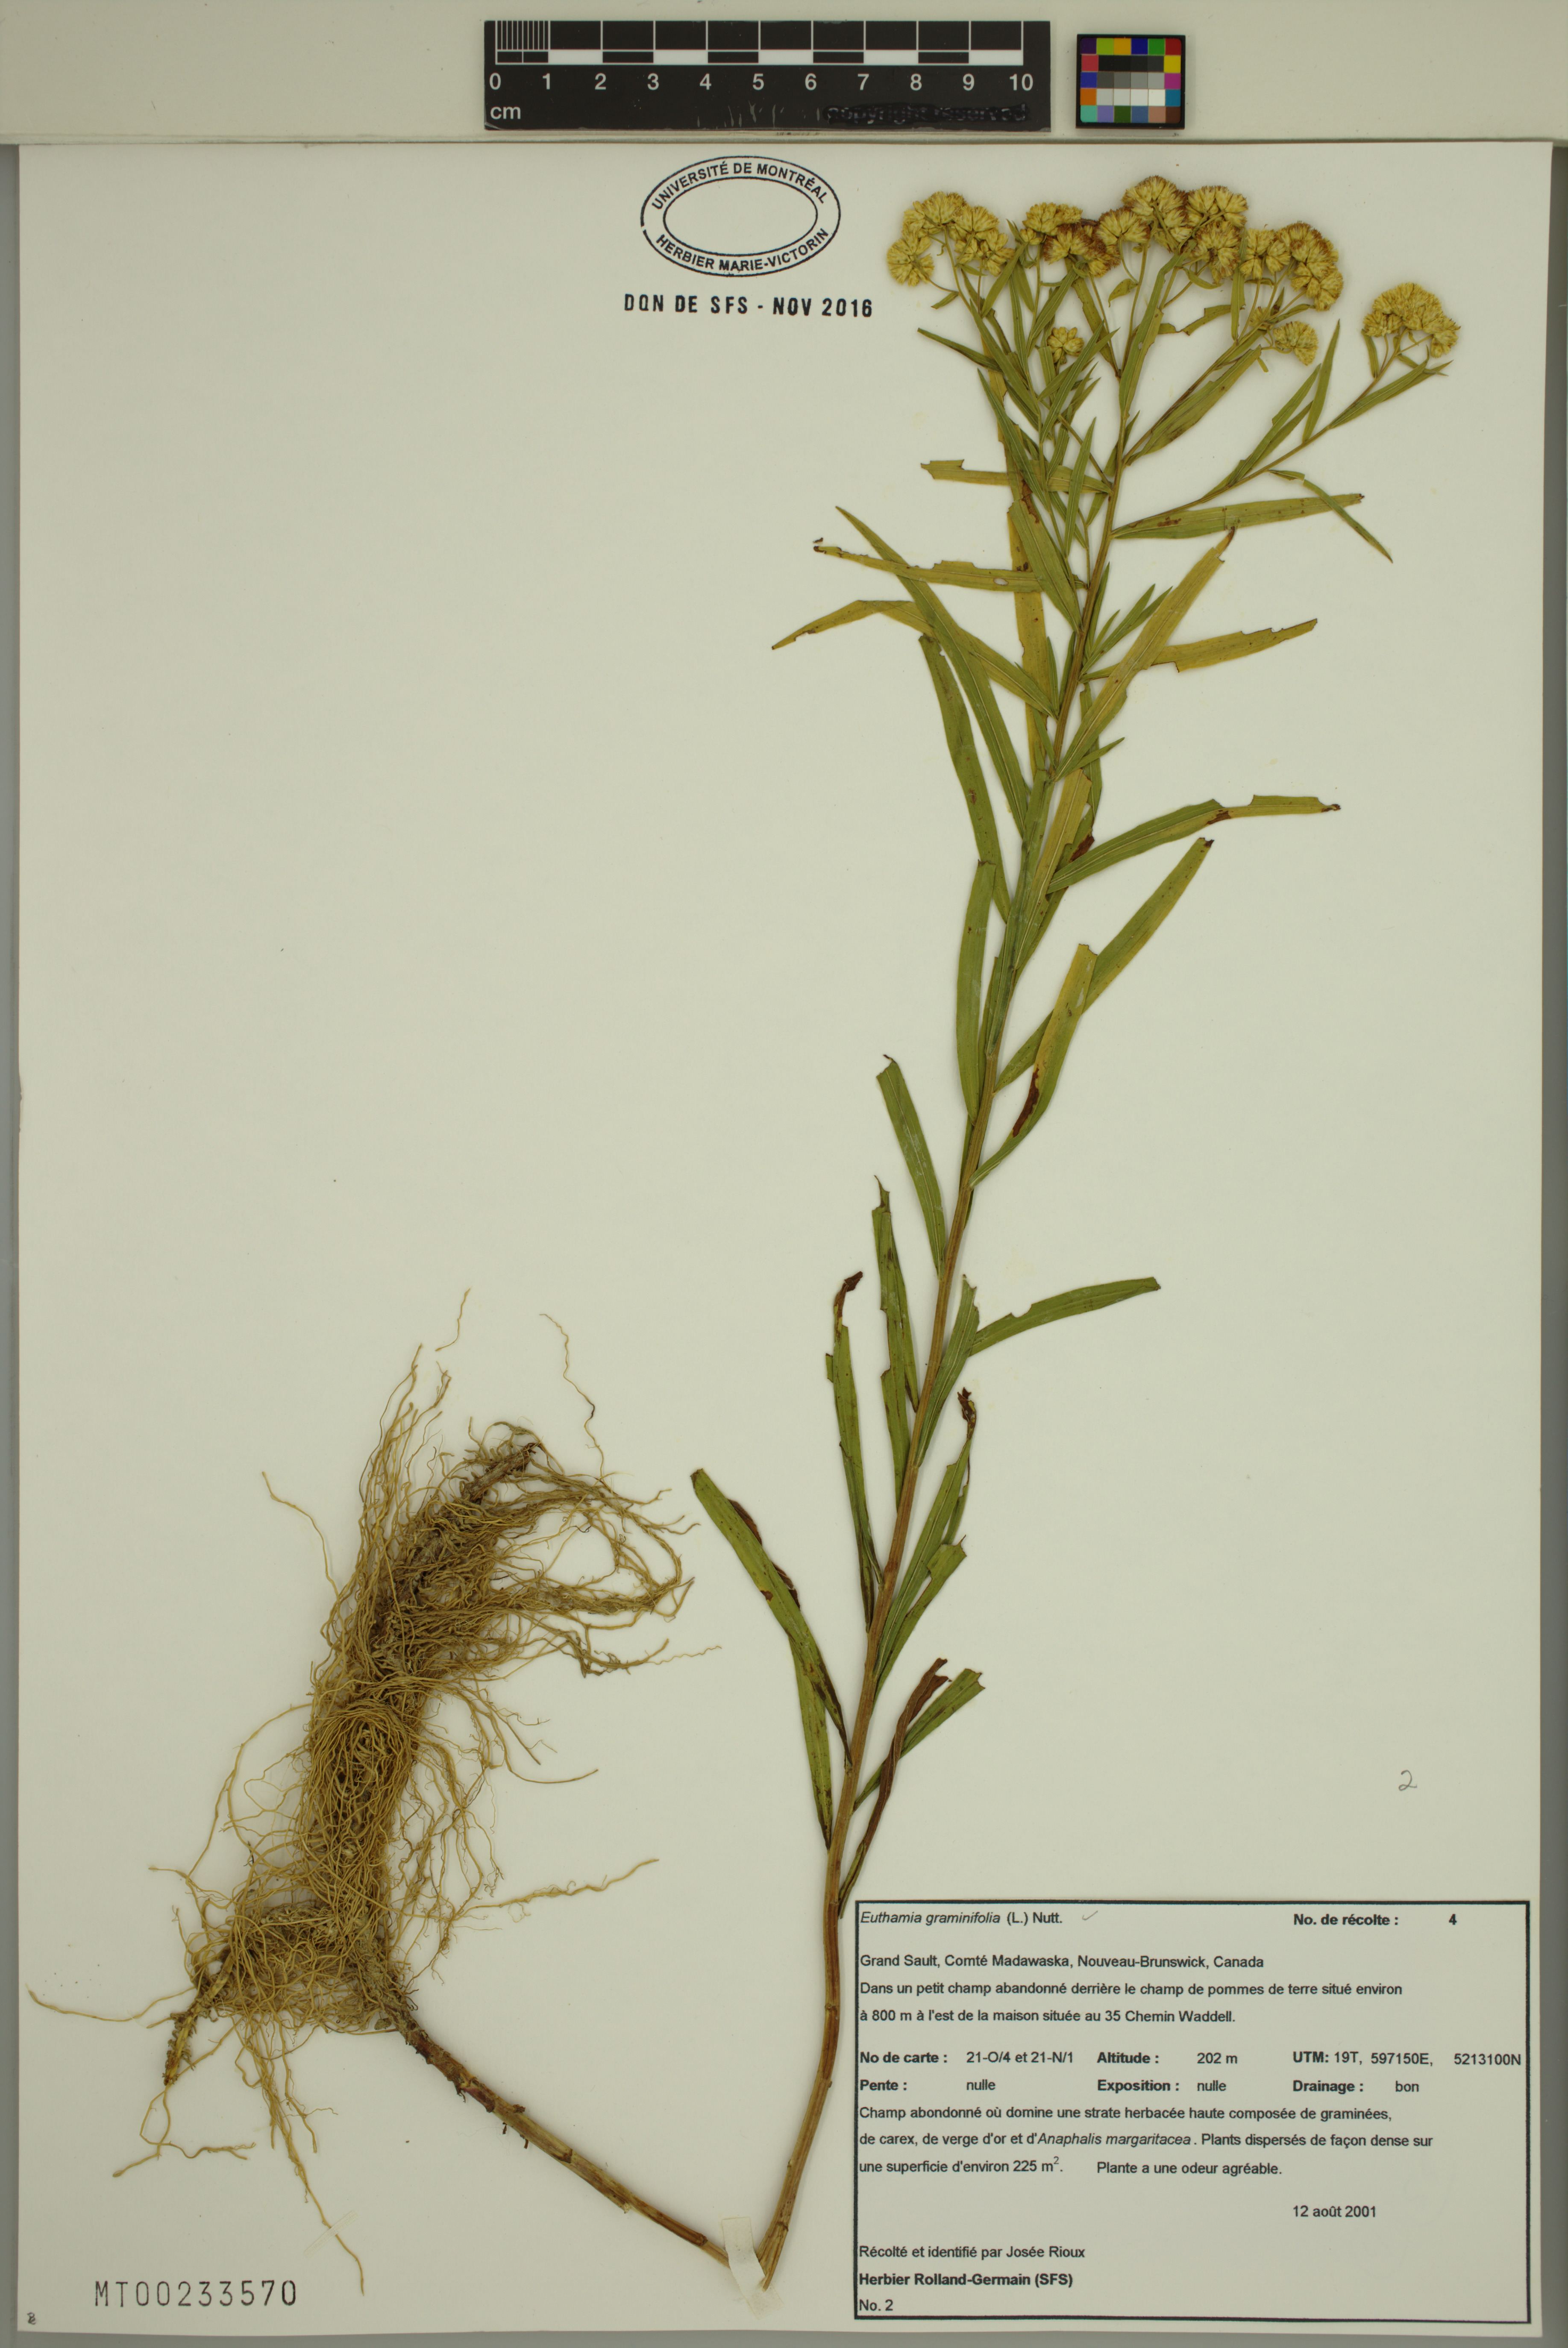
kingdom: Plantae
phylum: Tracheophyta
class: Magnoliopsida
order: Asterales
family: Asteraceae
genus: Euthamia
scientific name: Euthamia graminifolia
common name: Common goldentop
